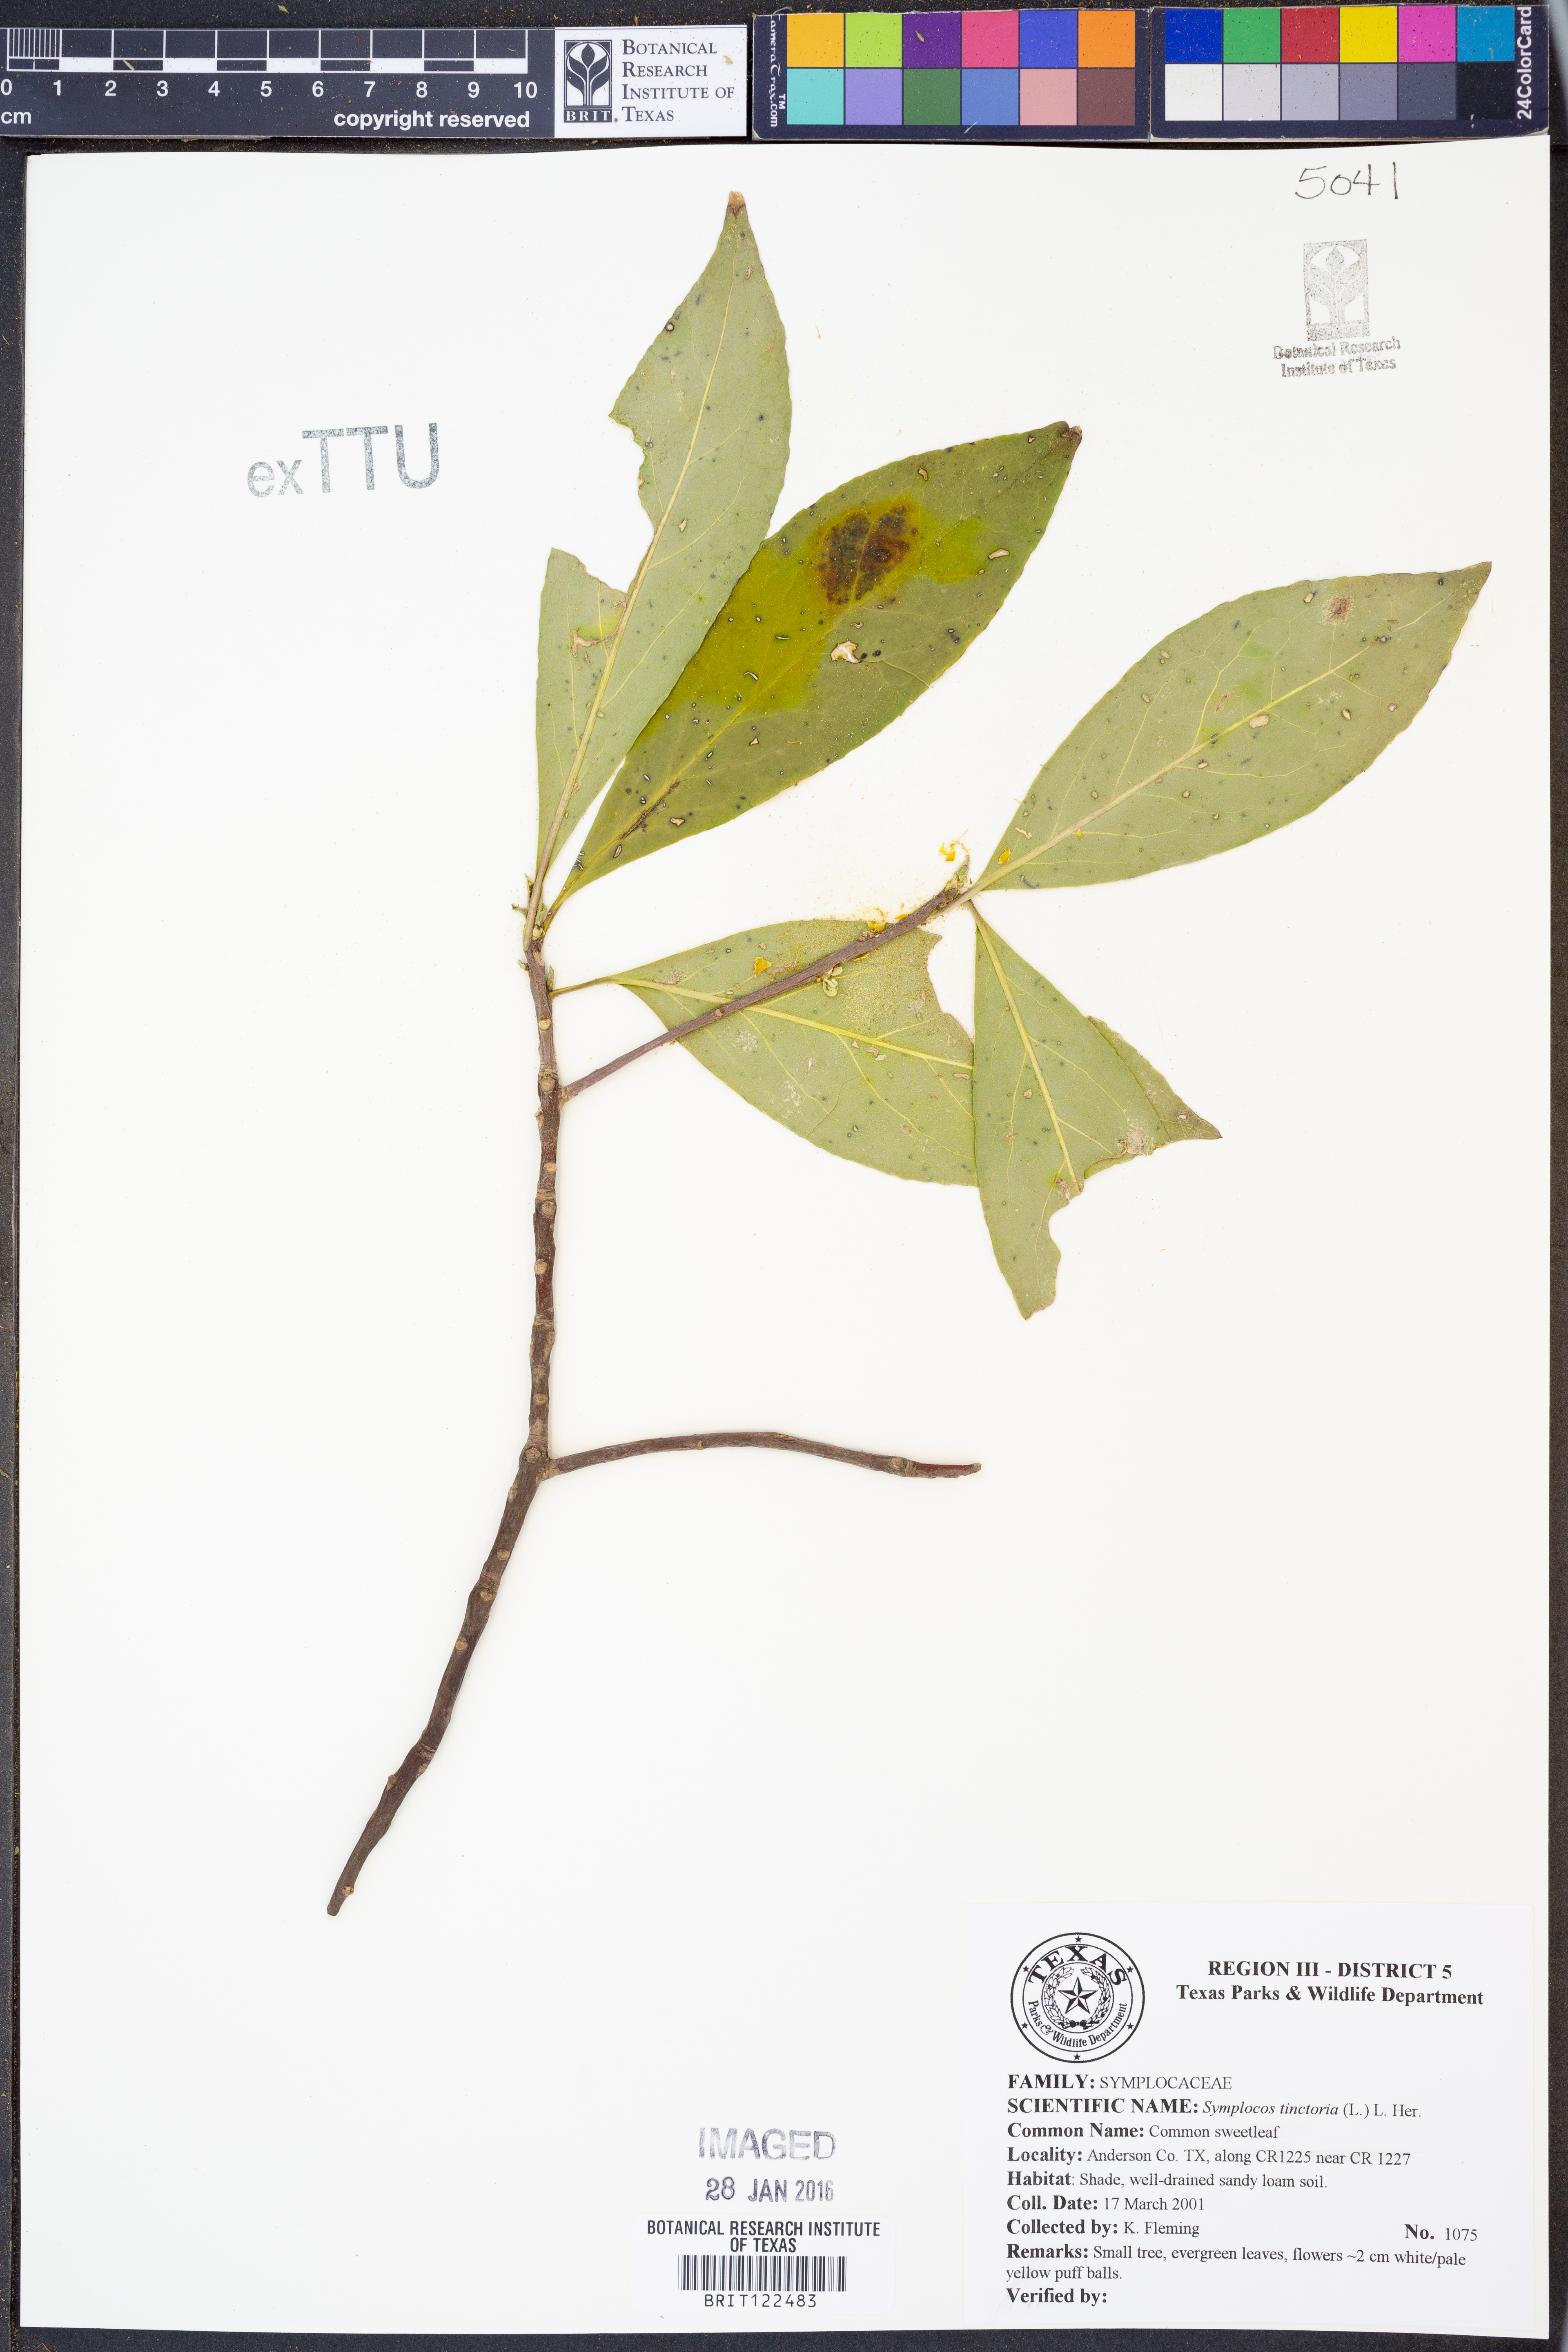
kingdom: Plantae
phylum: Tracheophyta
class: Magnoliopsida
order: Ericales
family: Symplocaceae
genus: Symplocos
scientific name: Symplocos tinctoria
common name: Horse-sugar
